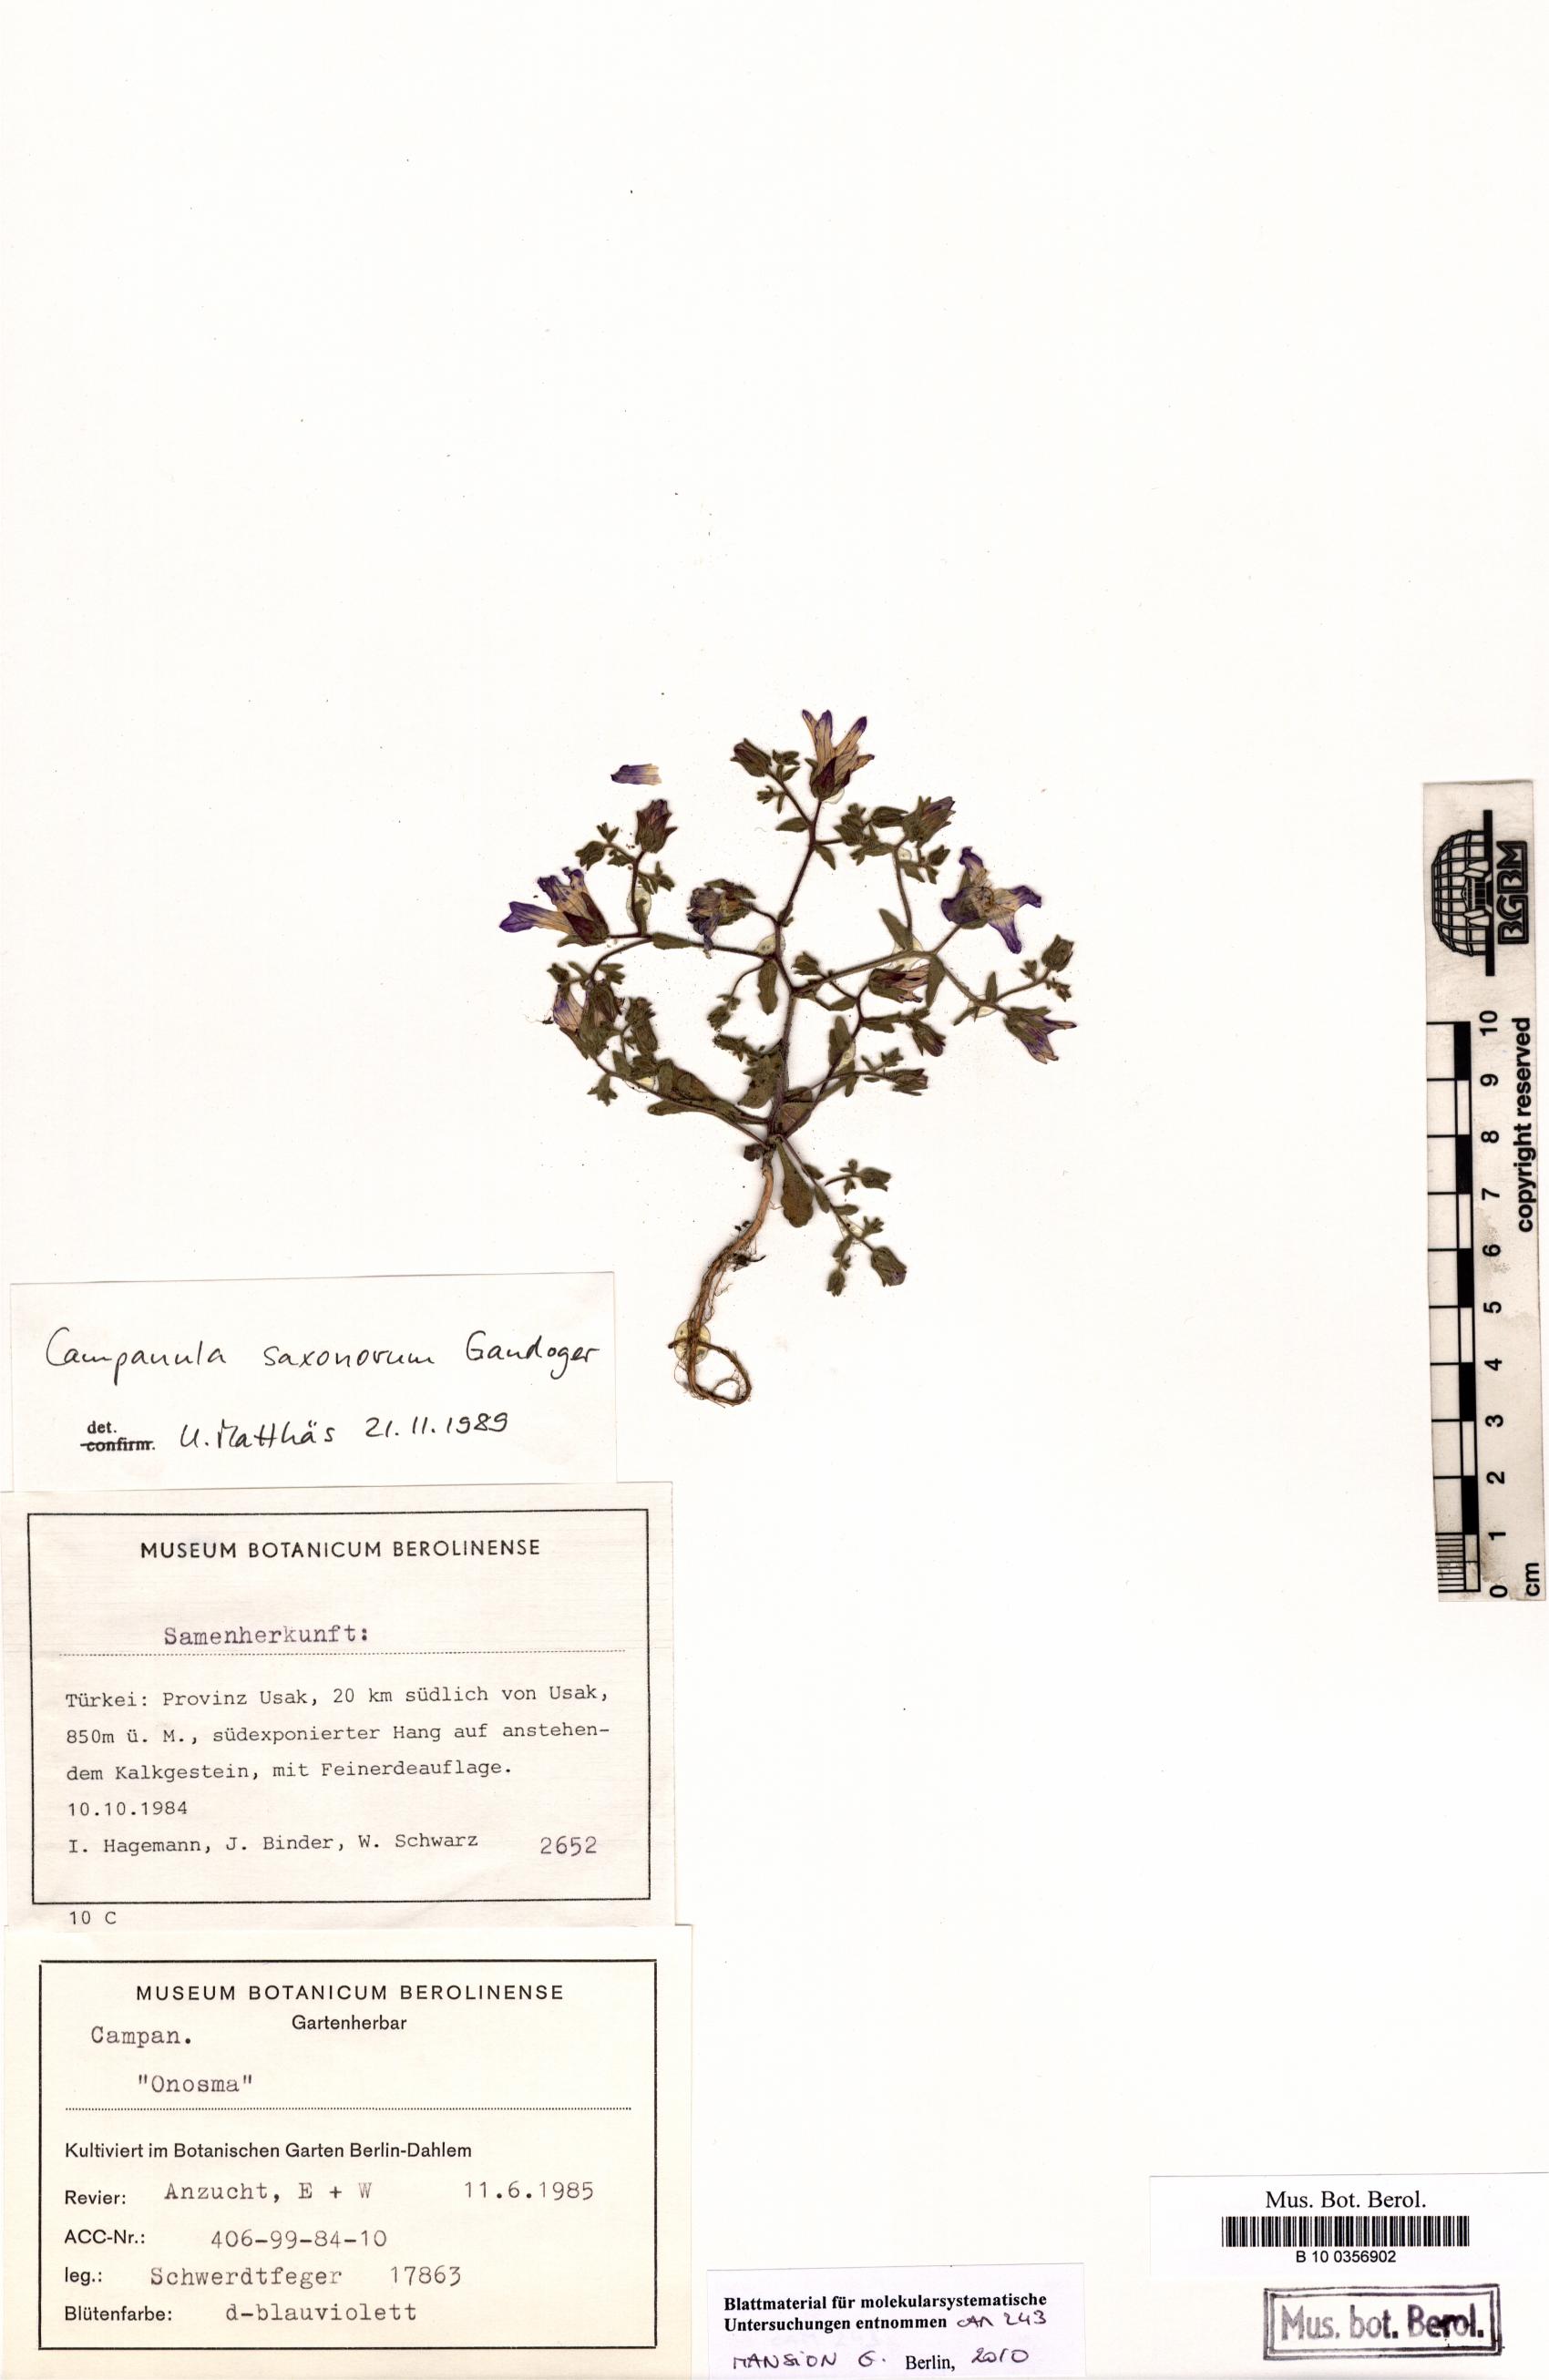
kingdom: Plantae
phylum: Tracheophyta
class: Magnoliopsida
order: Asterales
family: Campanulaceae
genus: Campanula
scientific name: Campanula saxonorum
